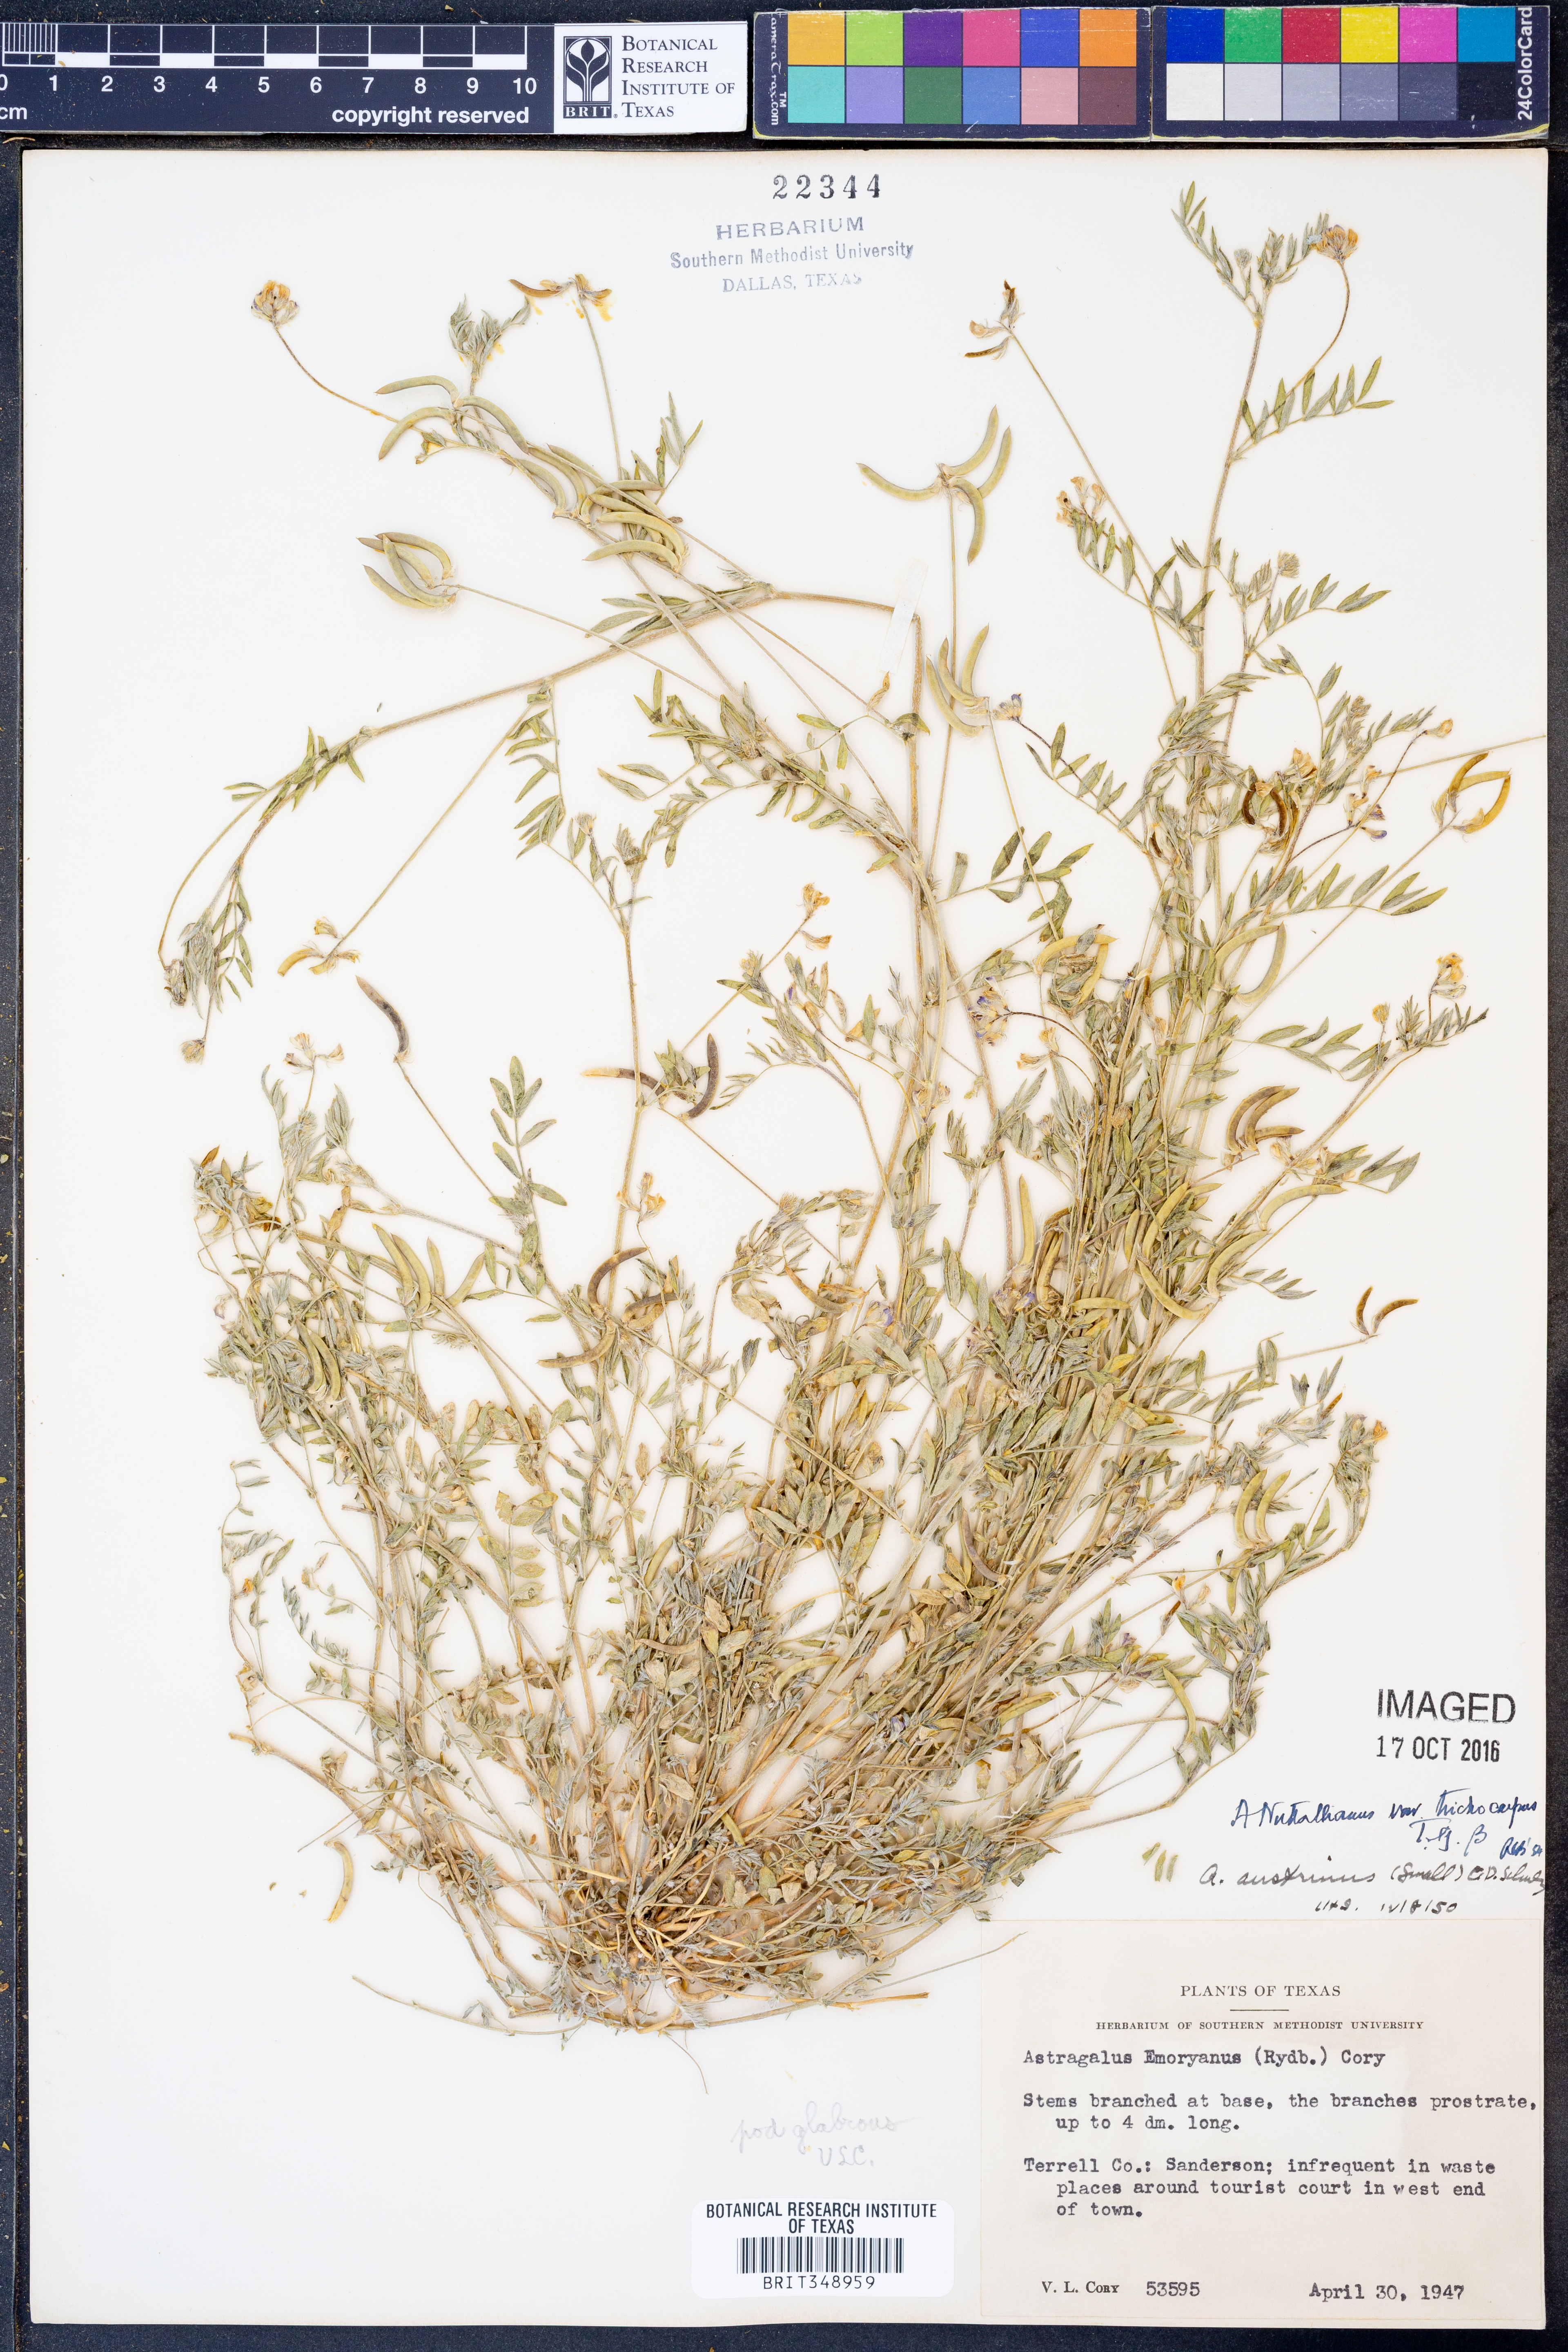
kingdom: Plantae
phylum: Tracheophyta
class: Magnoliopsida
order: Fabales
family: Fabaceae
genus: Astragalus
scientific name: Astragalus nuttallianus
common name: Smallflowered milkvetch
